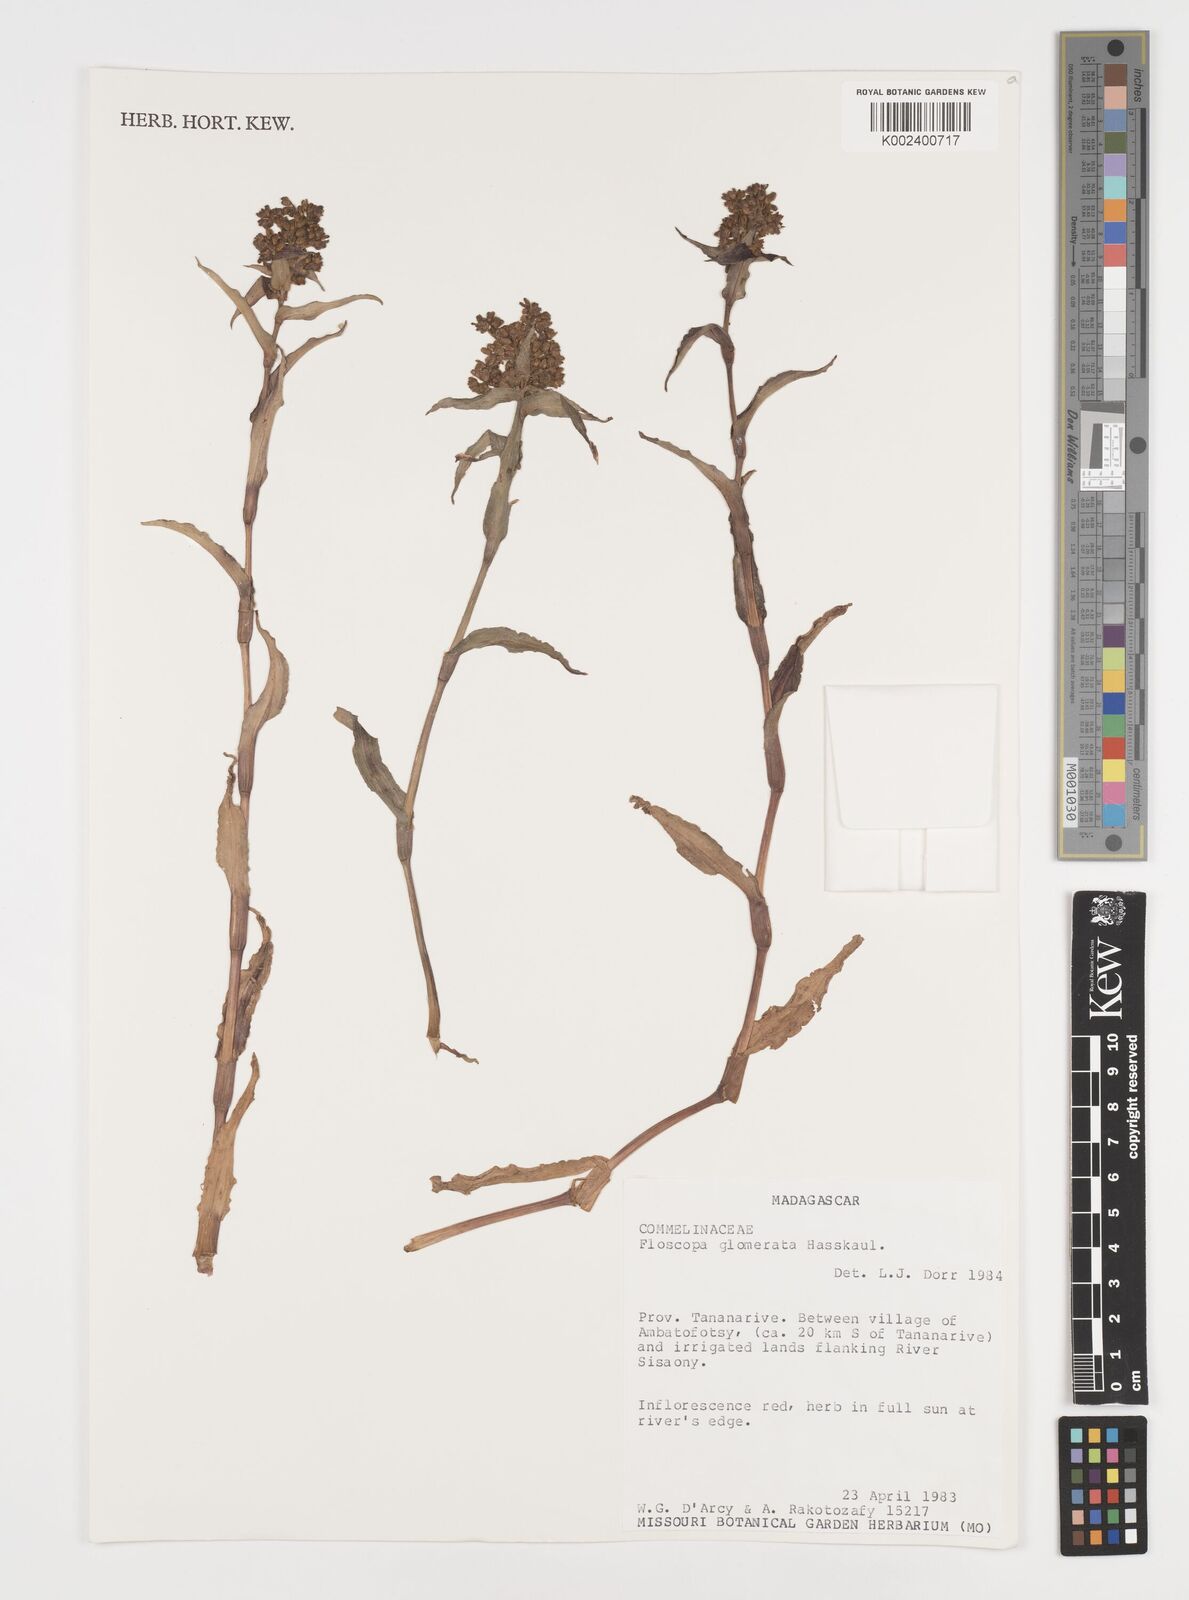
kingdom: Plantae
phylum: Tracheophyta
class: Liliopsida
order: Commelinales
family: Commelinaceae
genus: Floscopa
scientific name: Floscopa glomerata
